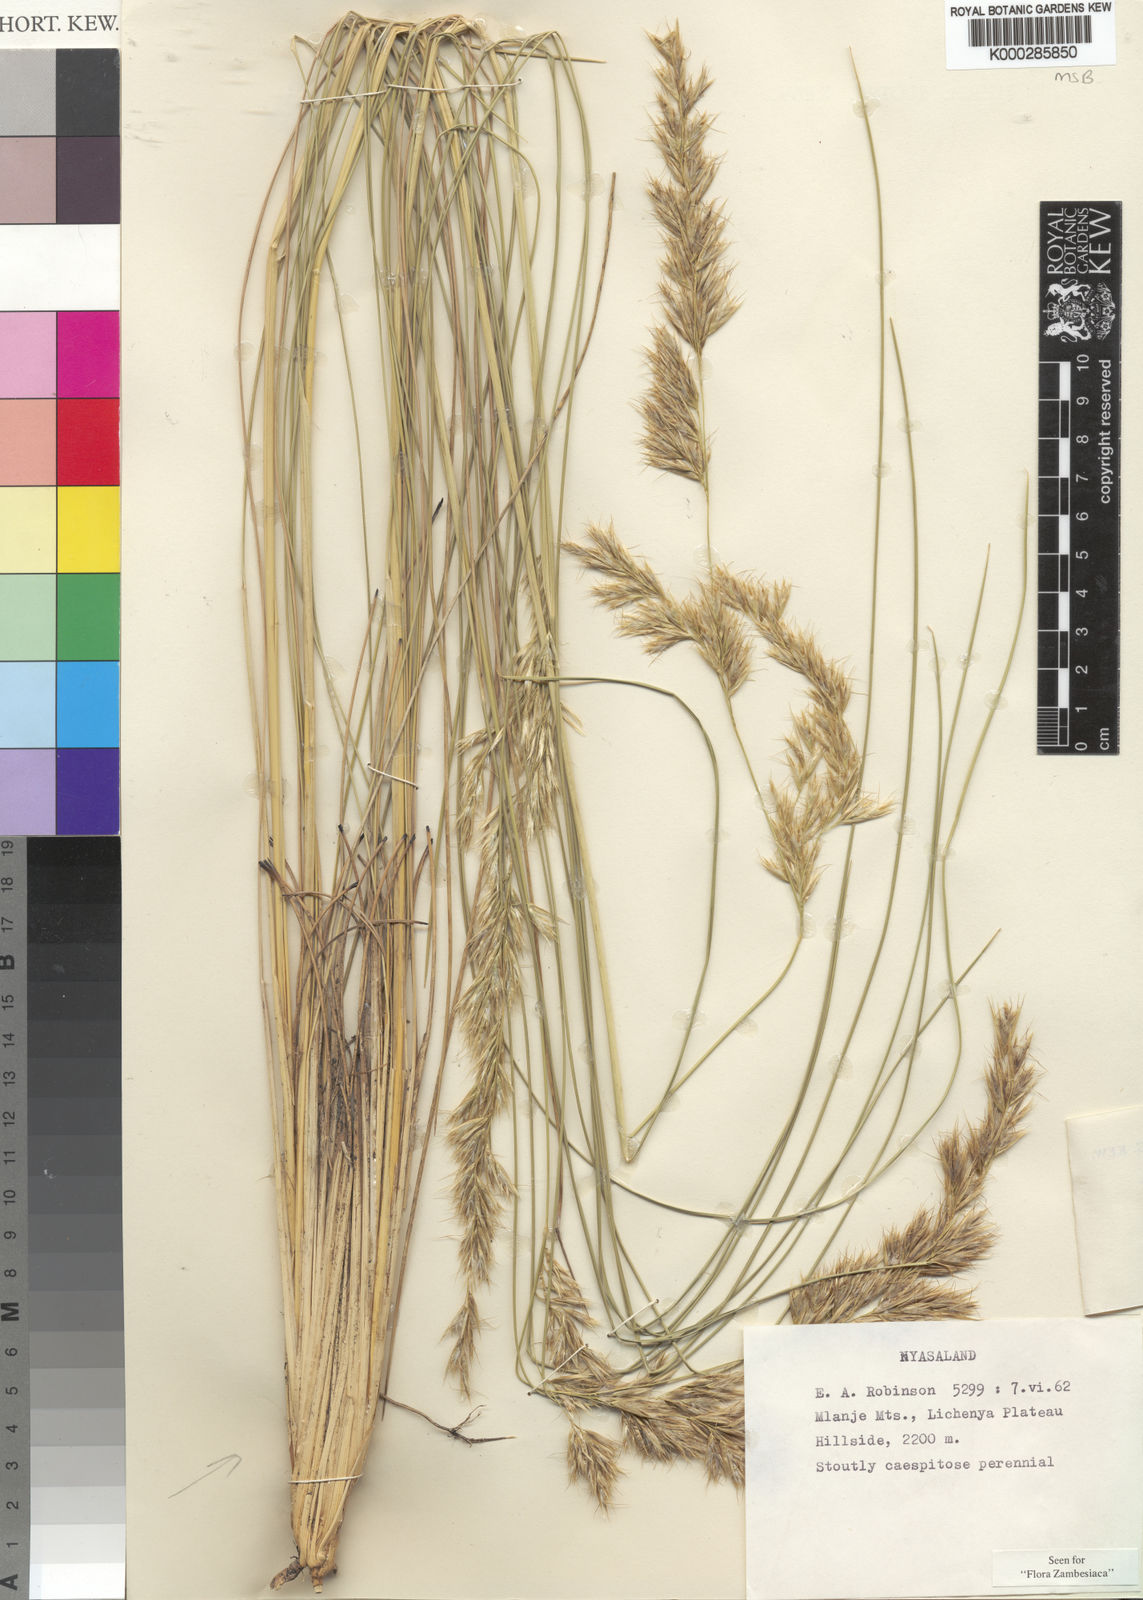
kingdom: Plantae
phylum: Tracheophyta
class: Liliopsida
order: Poales
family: Poaceae
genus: Merxmuellera
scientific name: Merxmuellera davyi
